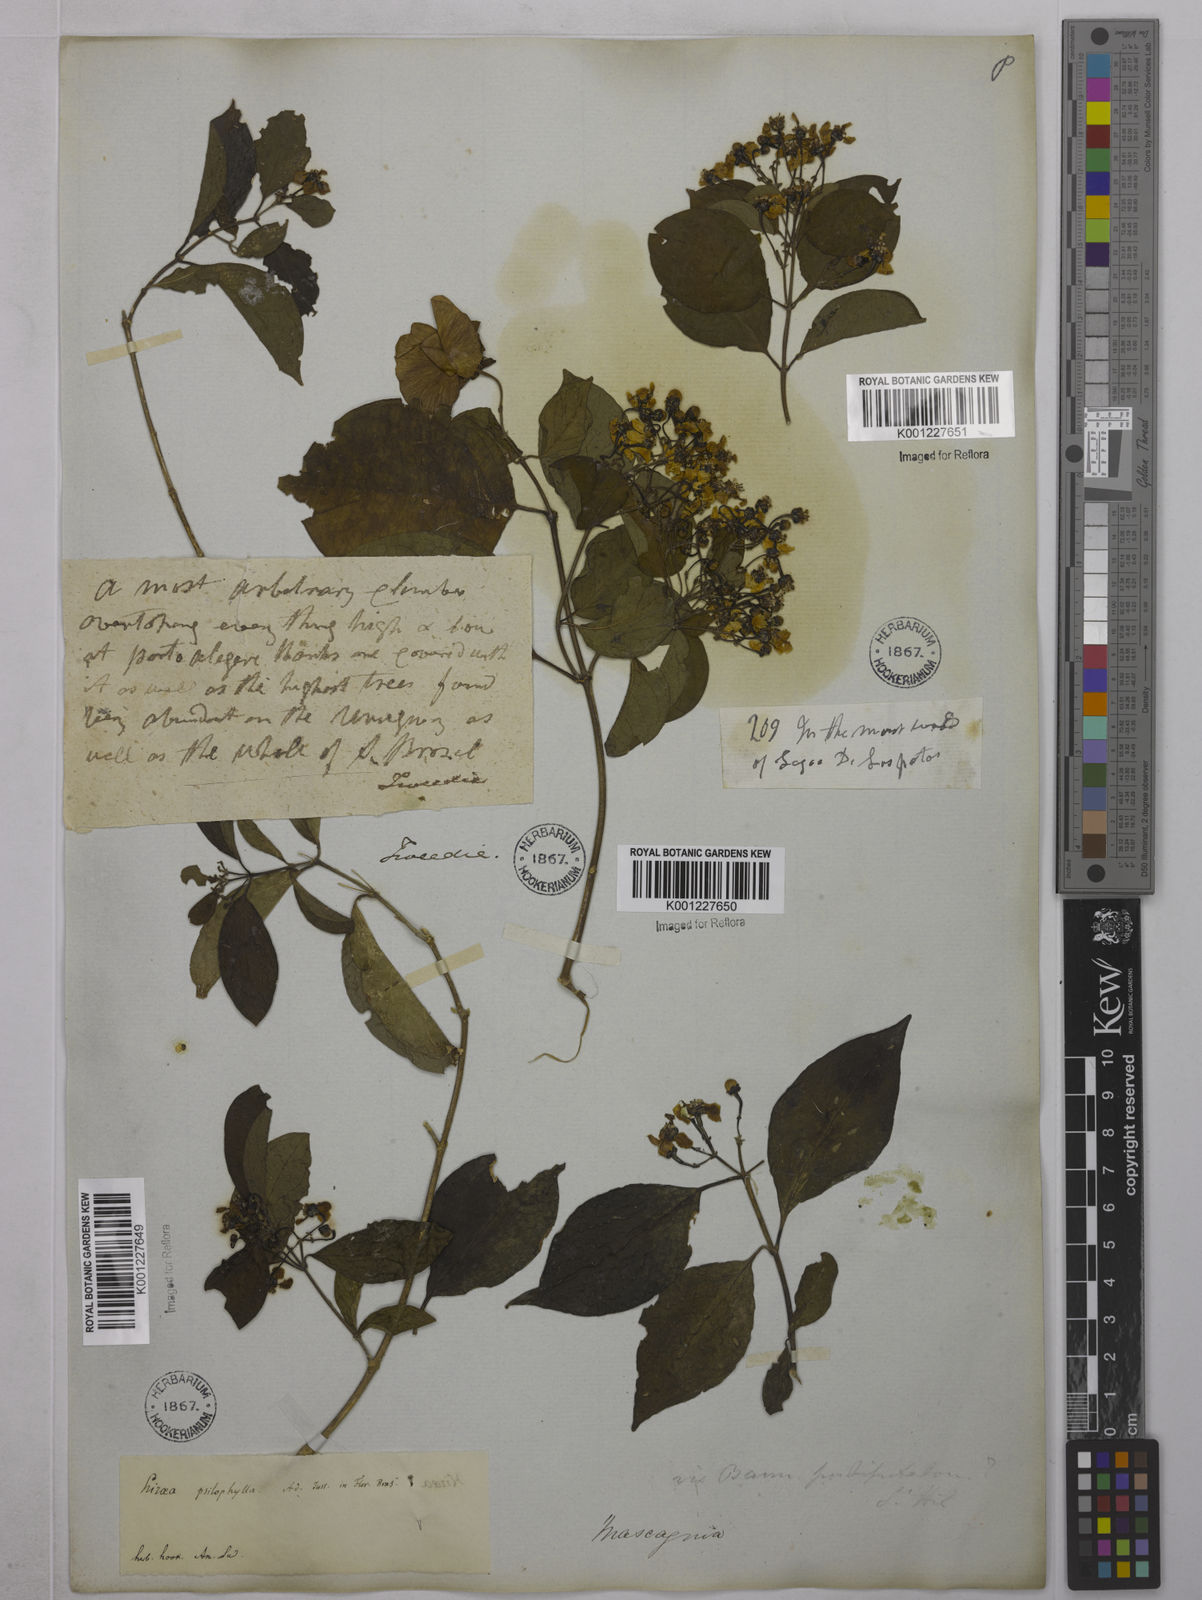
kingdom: Plantae
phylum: Tracheophyta
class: Magnoliopsida
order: Malpighiales
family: Malpighiaceae
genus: Callaeum
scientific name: Callaeum psilophyllum
